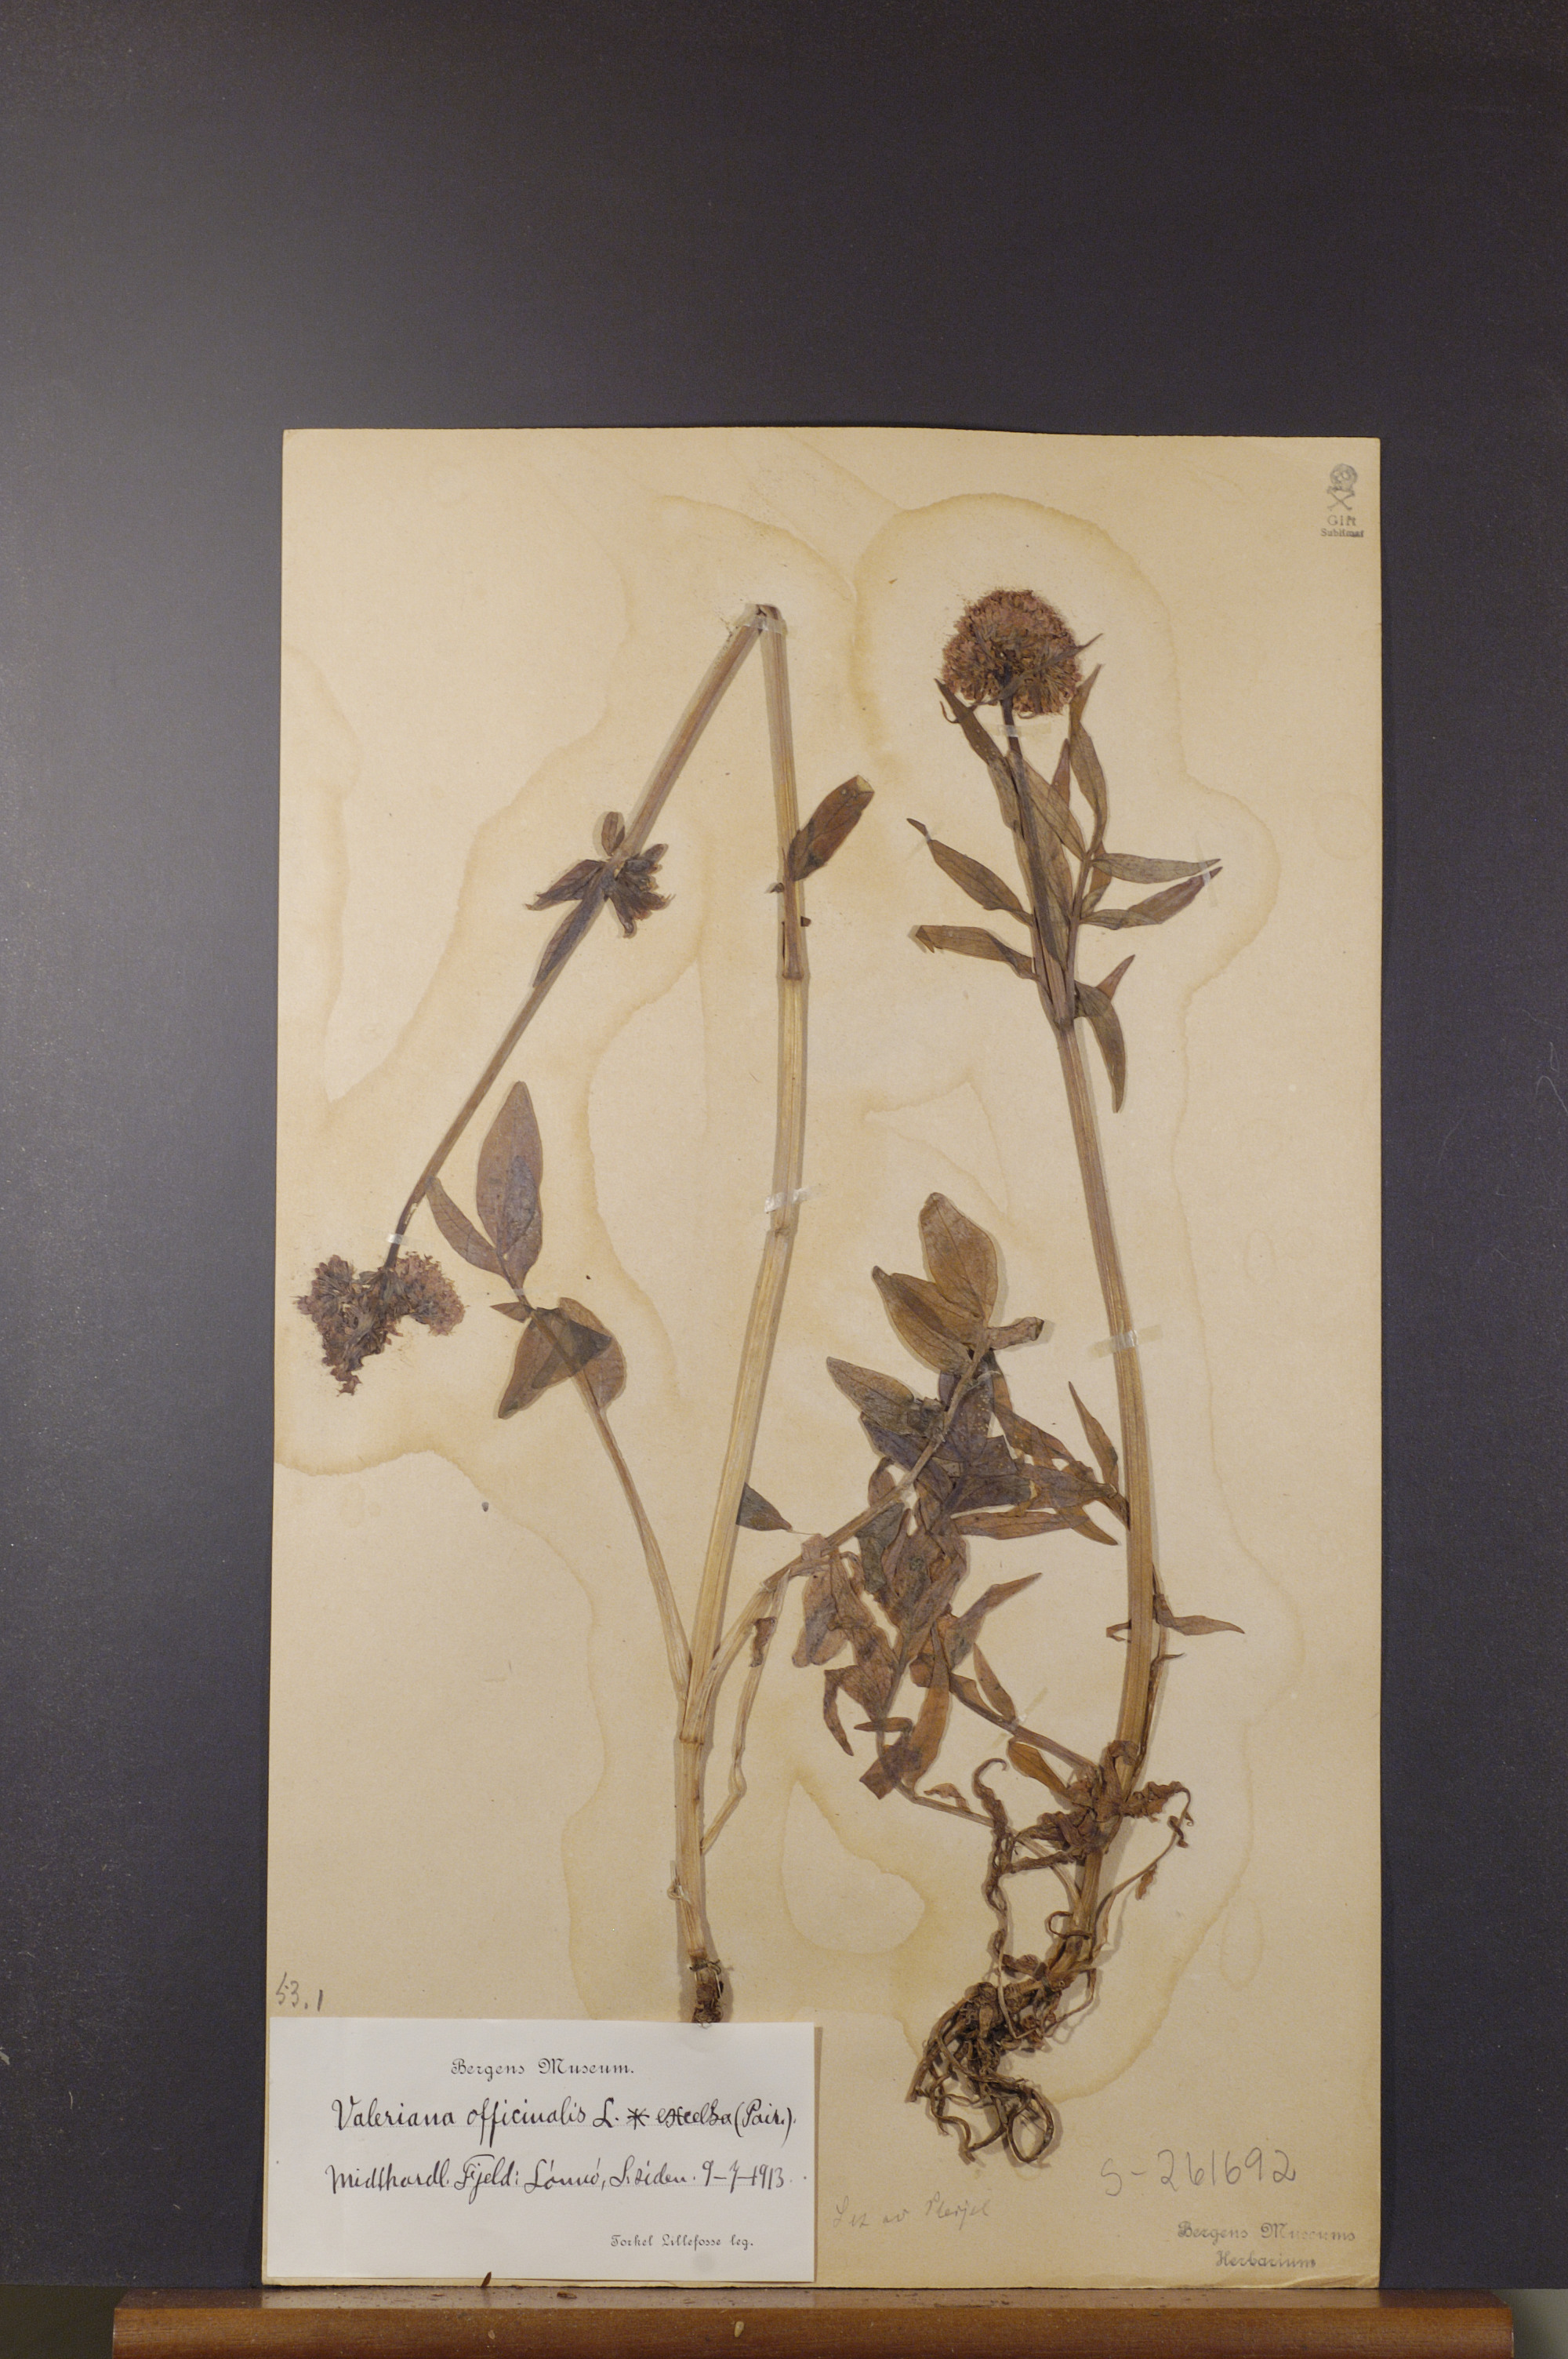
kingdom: Plantae
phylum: Tracheophyta
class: Magnoliopsida
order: Dipsacales
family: Caprifoliaceae
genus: Valeriana
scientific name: Valeriana sambucifolia
